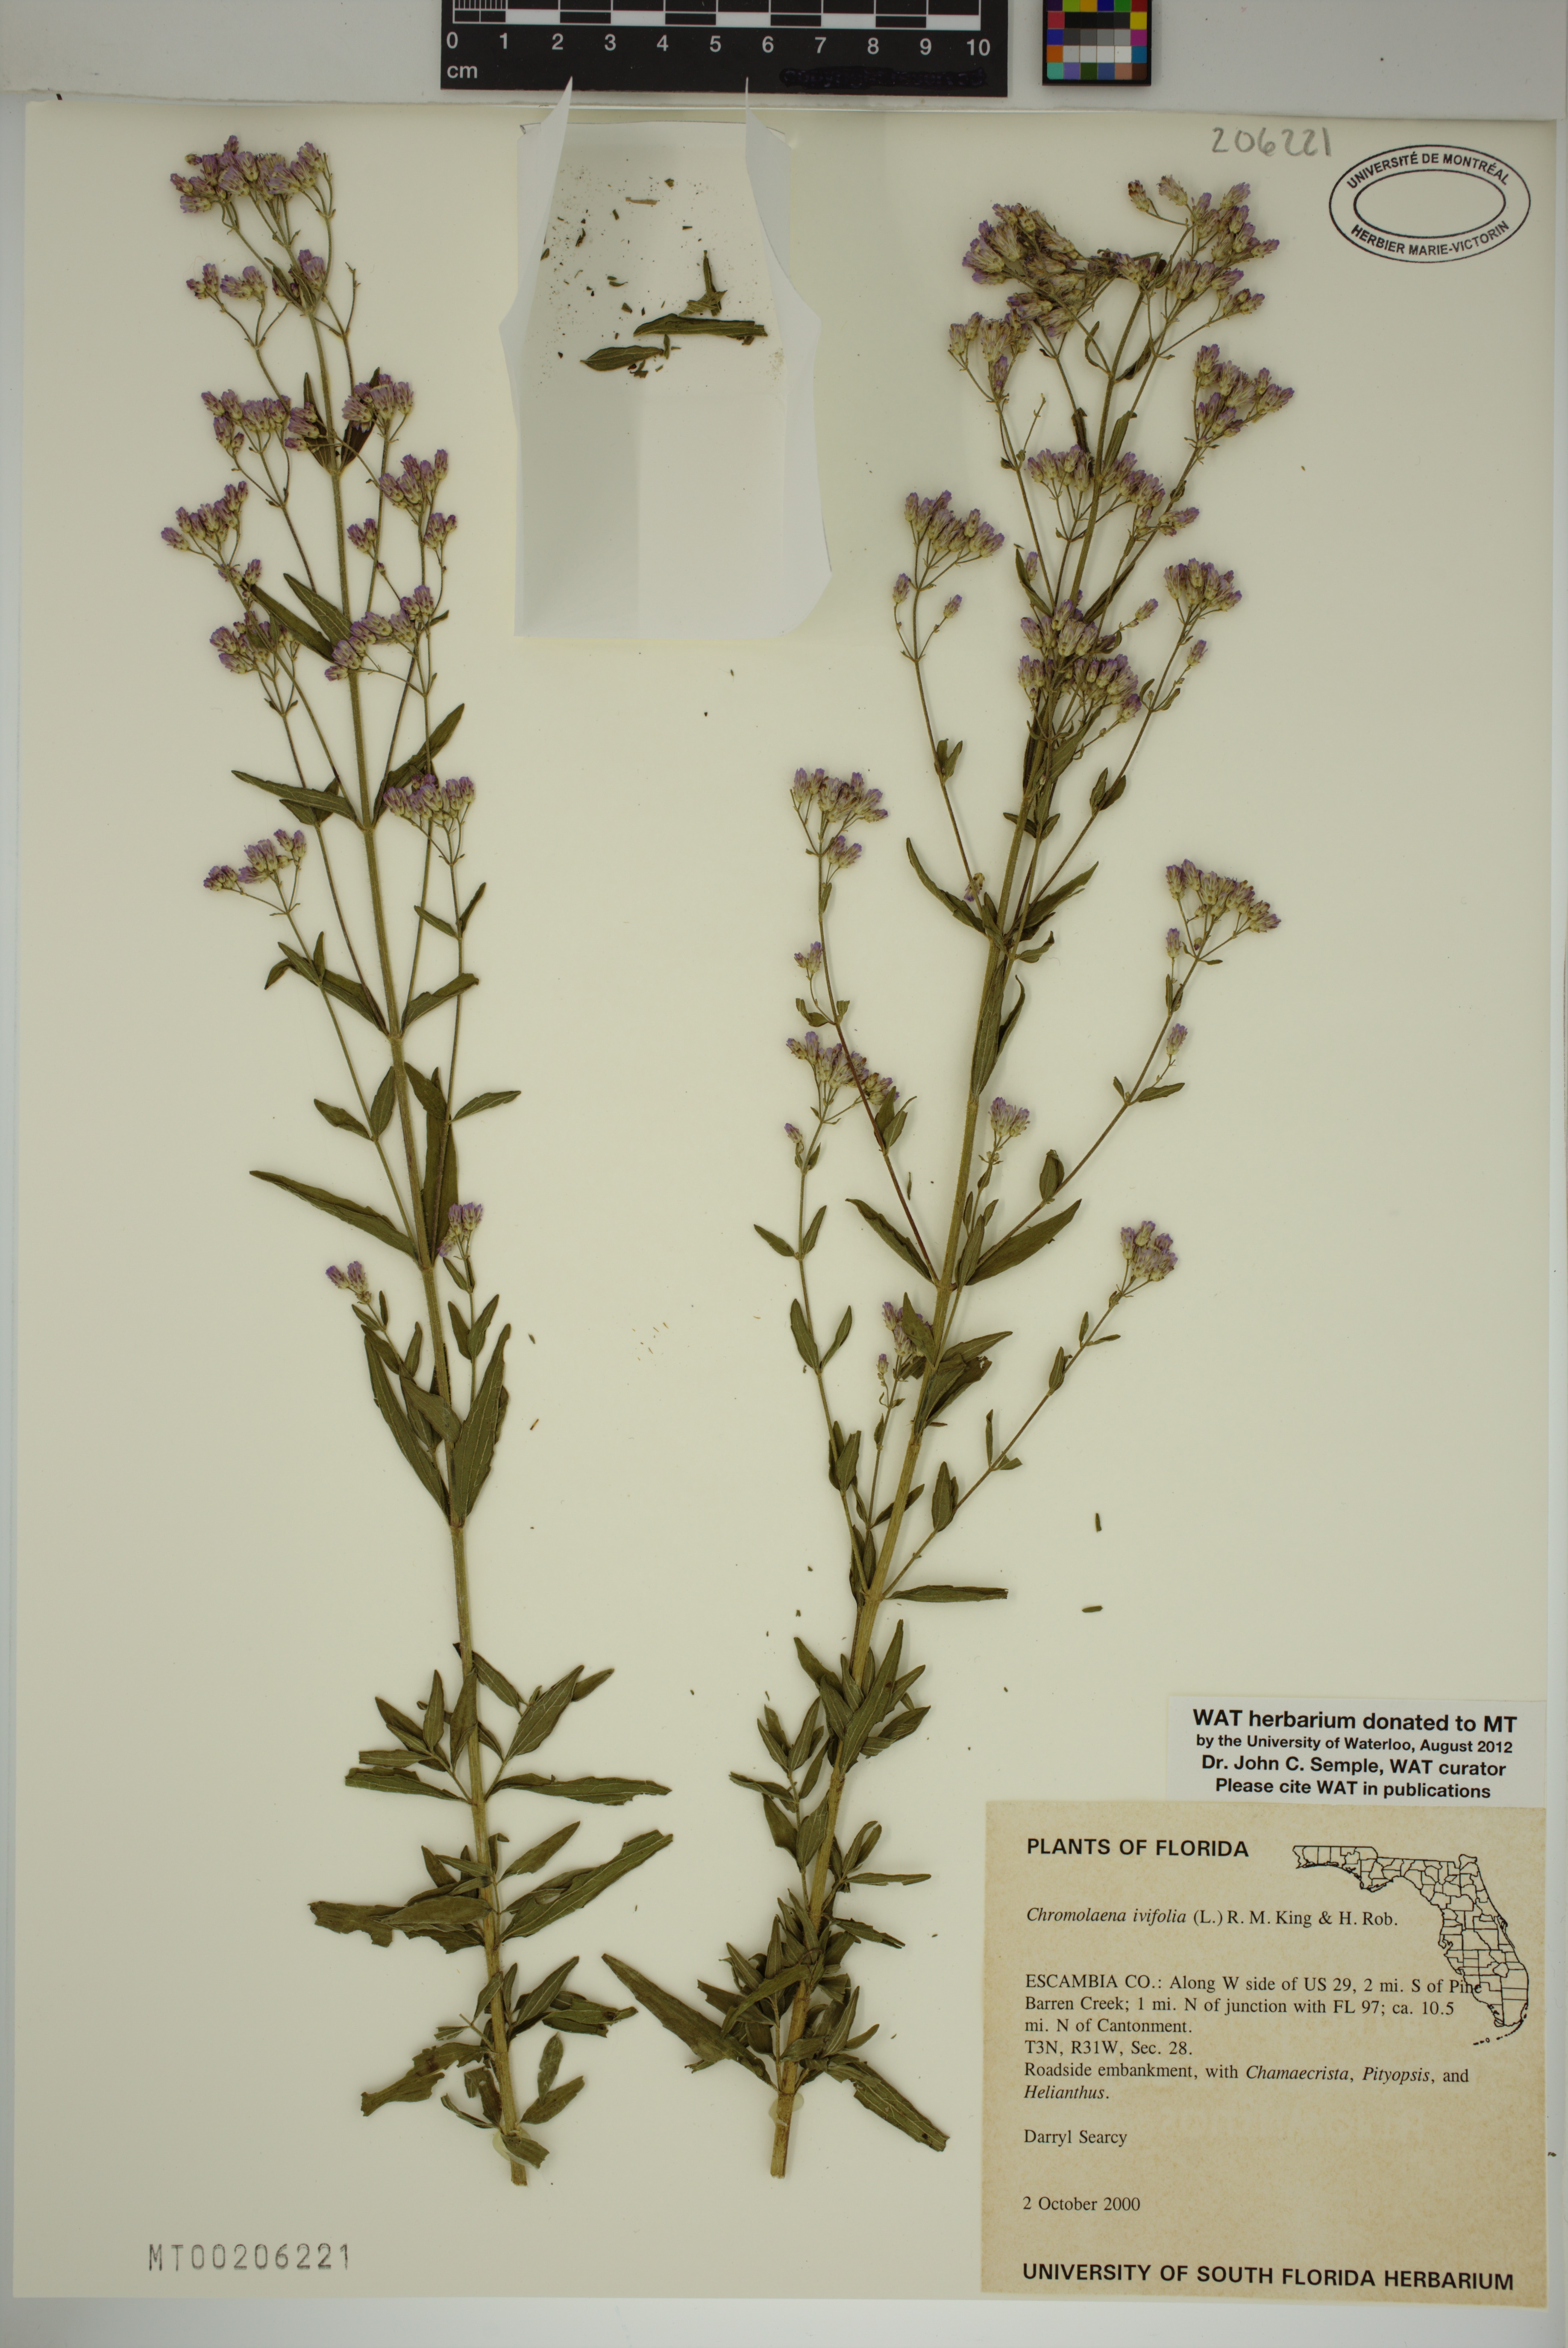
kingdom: Plantae
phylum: Tracheophyta
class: Magnoliopsida
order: Asterales
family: Asteraceae
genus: Chromolaena
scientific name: Chromolaena ivifolia
